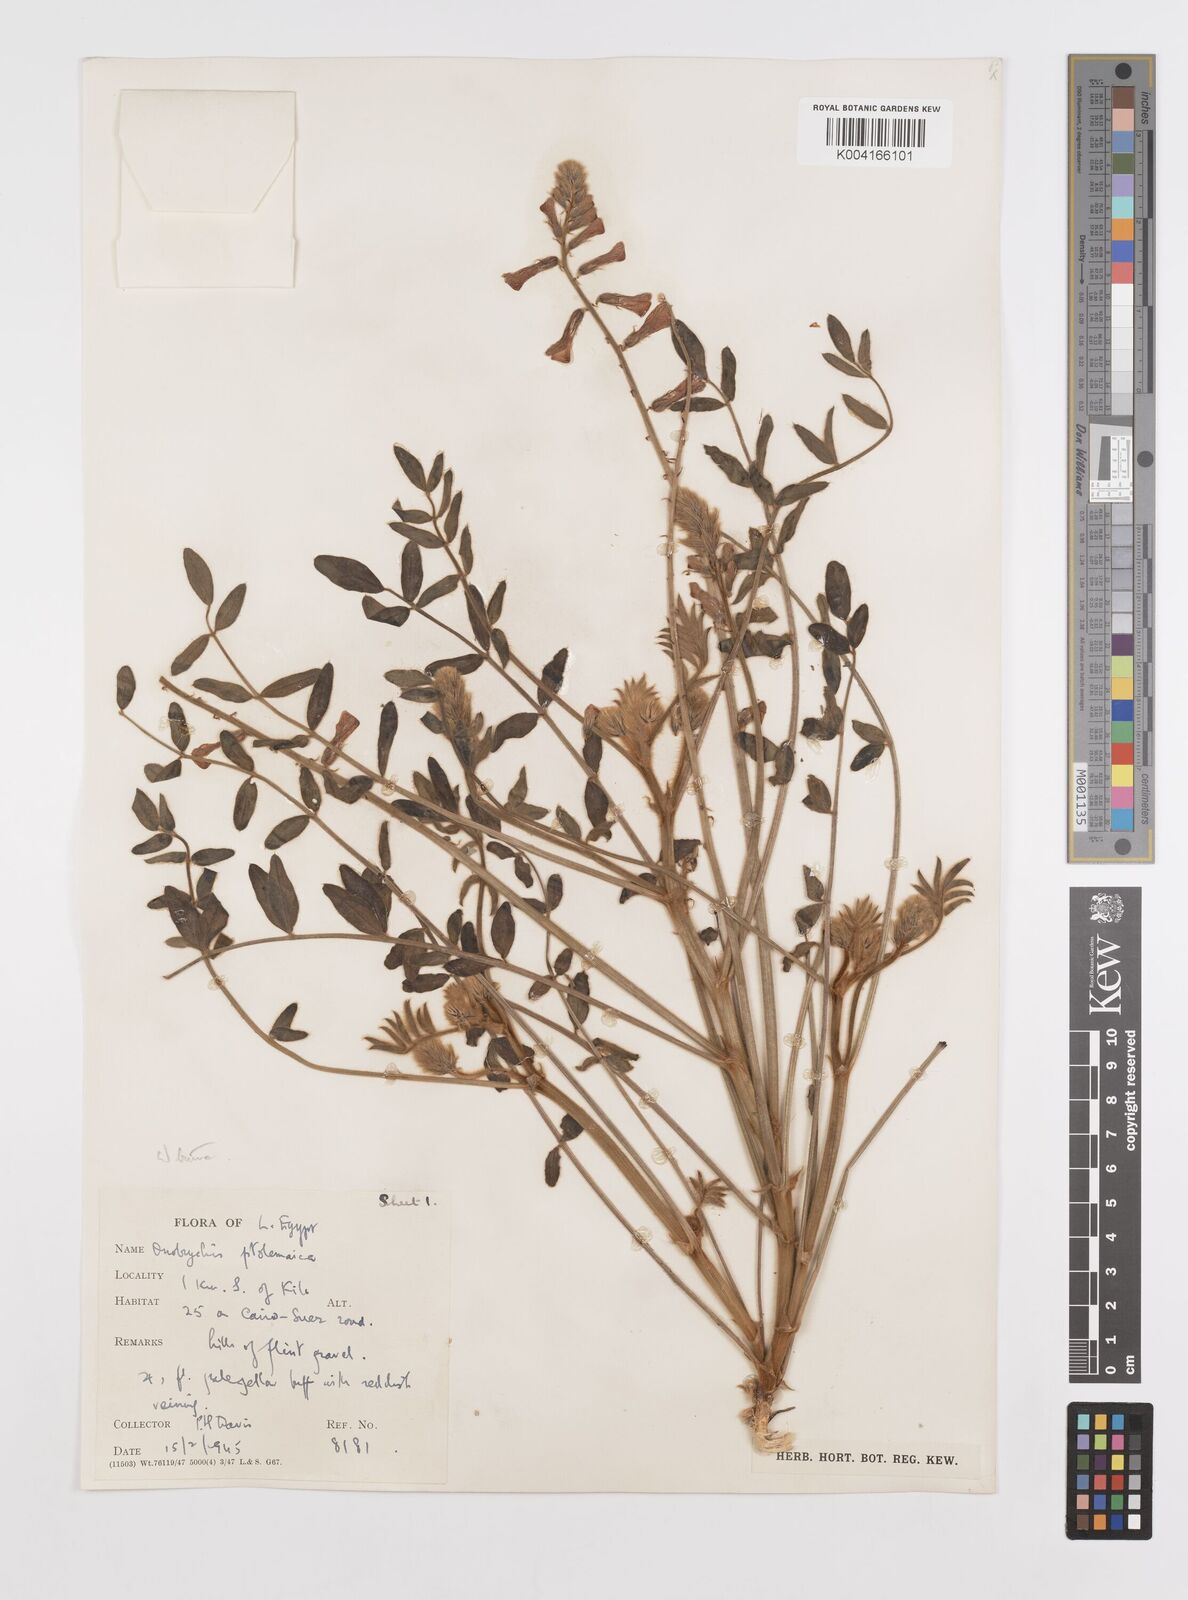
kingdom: Plantae
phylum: Tracheophyta
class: Magnoliopsida
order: Fabales
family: Fabaceae
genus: Onobrychis
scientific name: Onobrychis ptolemaica
